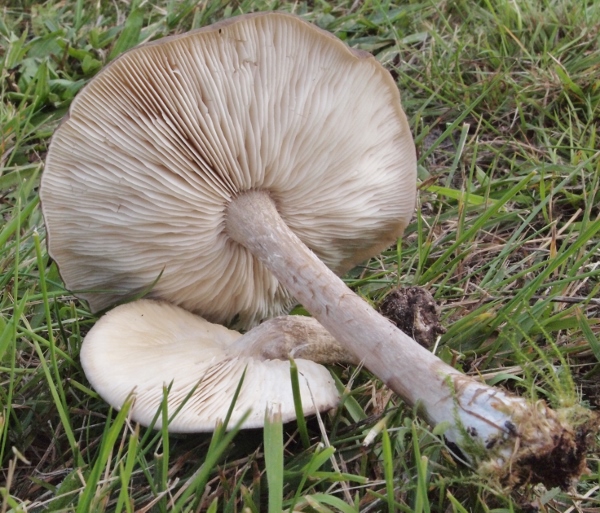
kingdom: Fungi
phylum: Basidiomycota
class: Agaricomycetes
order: Agaricales
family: Tricholomataceae
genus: Melanoleuca
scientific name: Melanoleuca polioleuca
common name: almindelig munkehat
